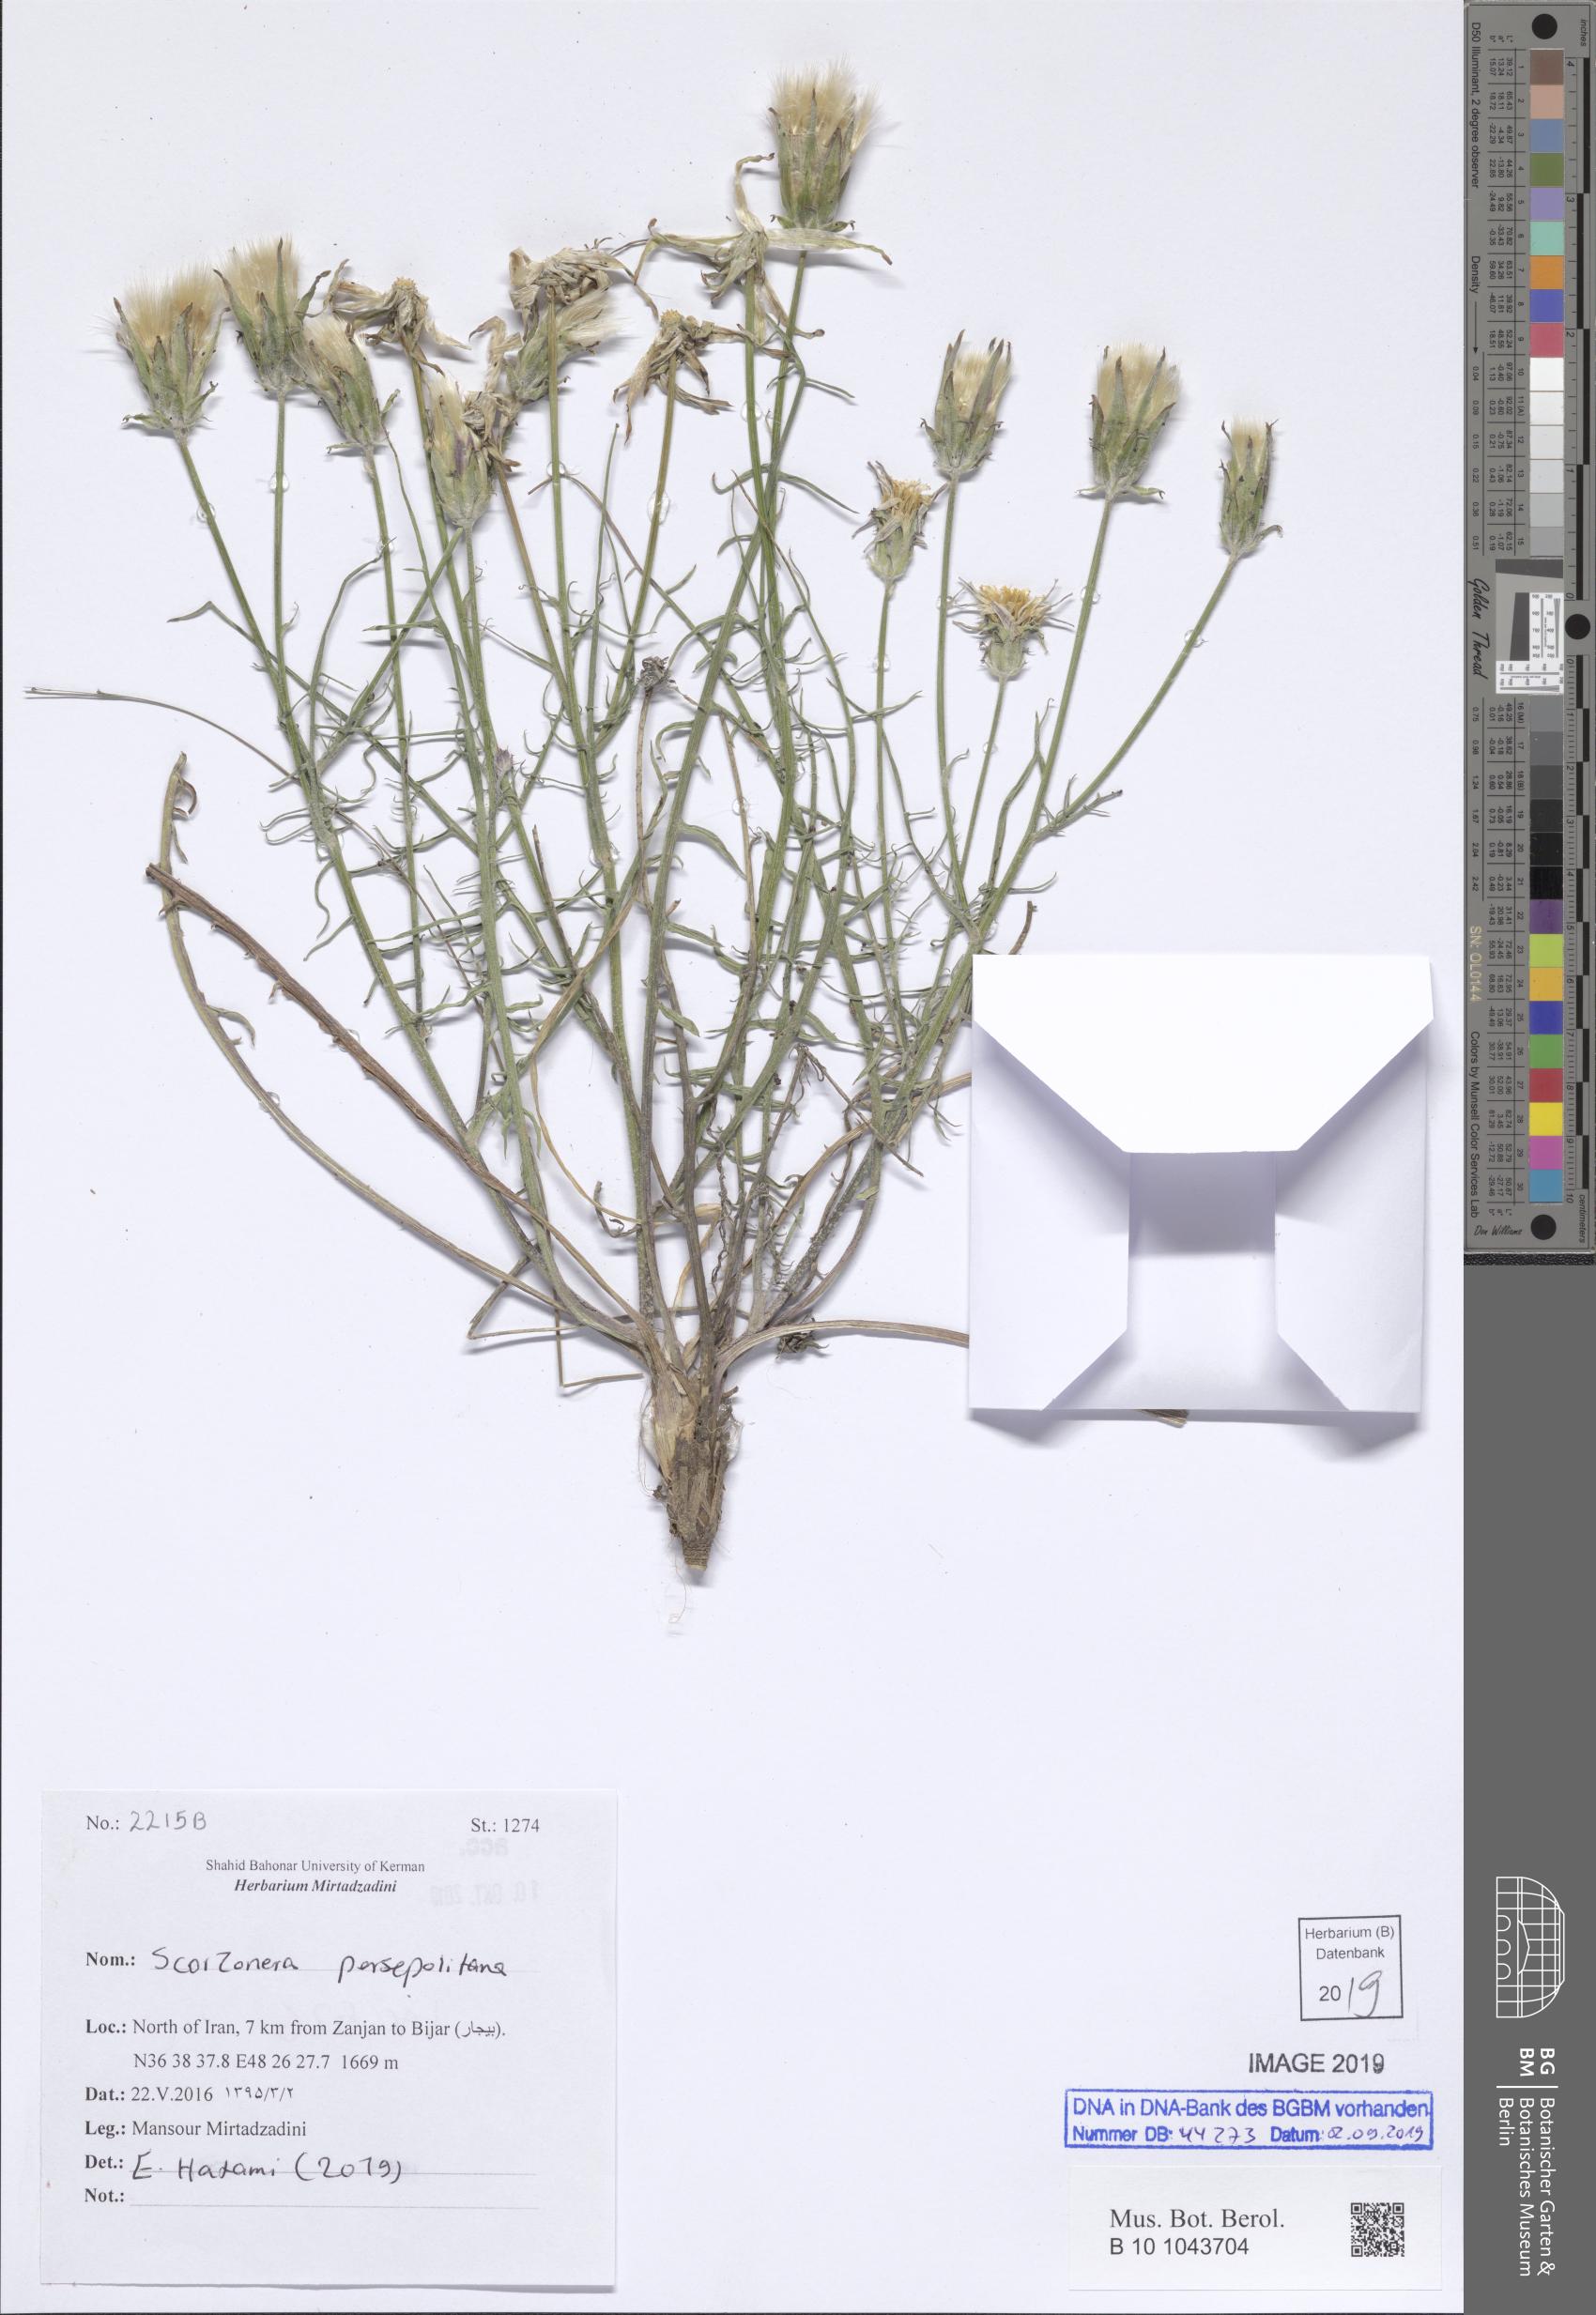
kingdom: Plantae
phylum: Tracheophyta
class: Magnoliopsida
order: Asterales
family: Asteraceae
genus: Scorzonera
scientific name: Scorzonera persepolitana
